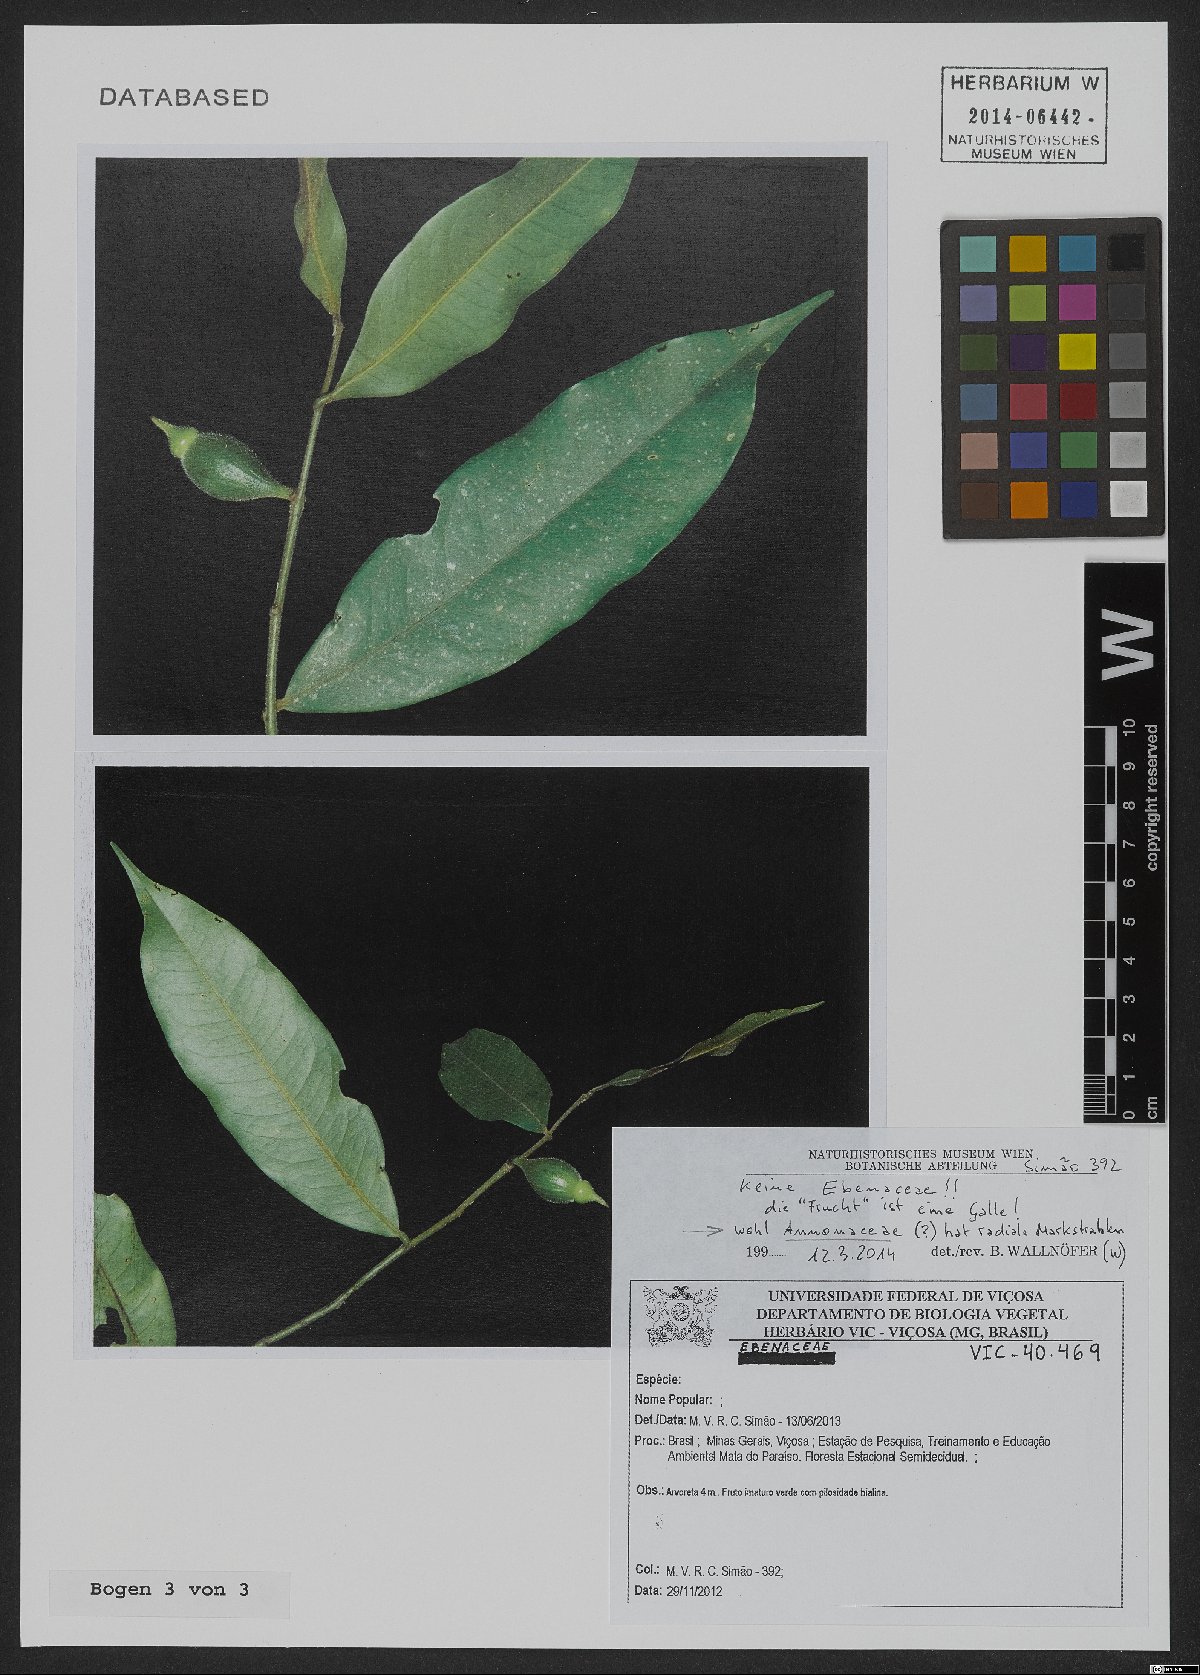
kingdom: Plantae
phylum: Tracheophyta
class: Magnoliopsida
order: Magnoliales
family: Annonaceae
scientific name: Annonaceae
